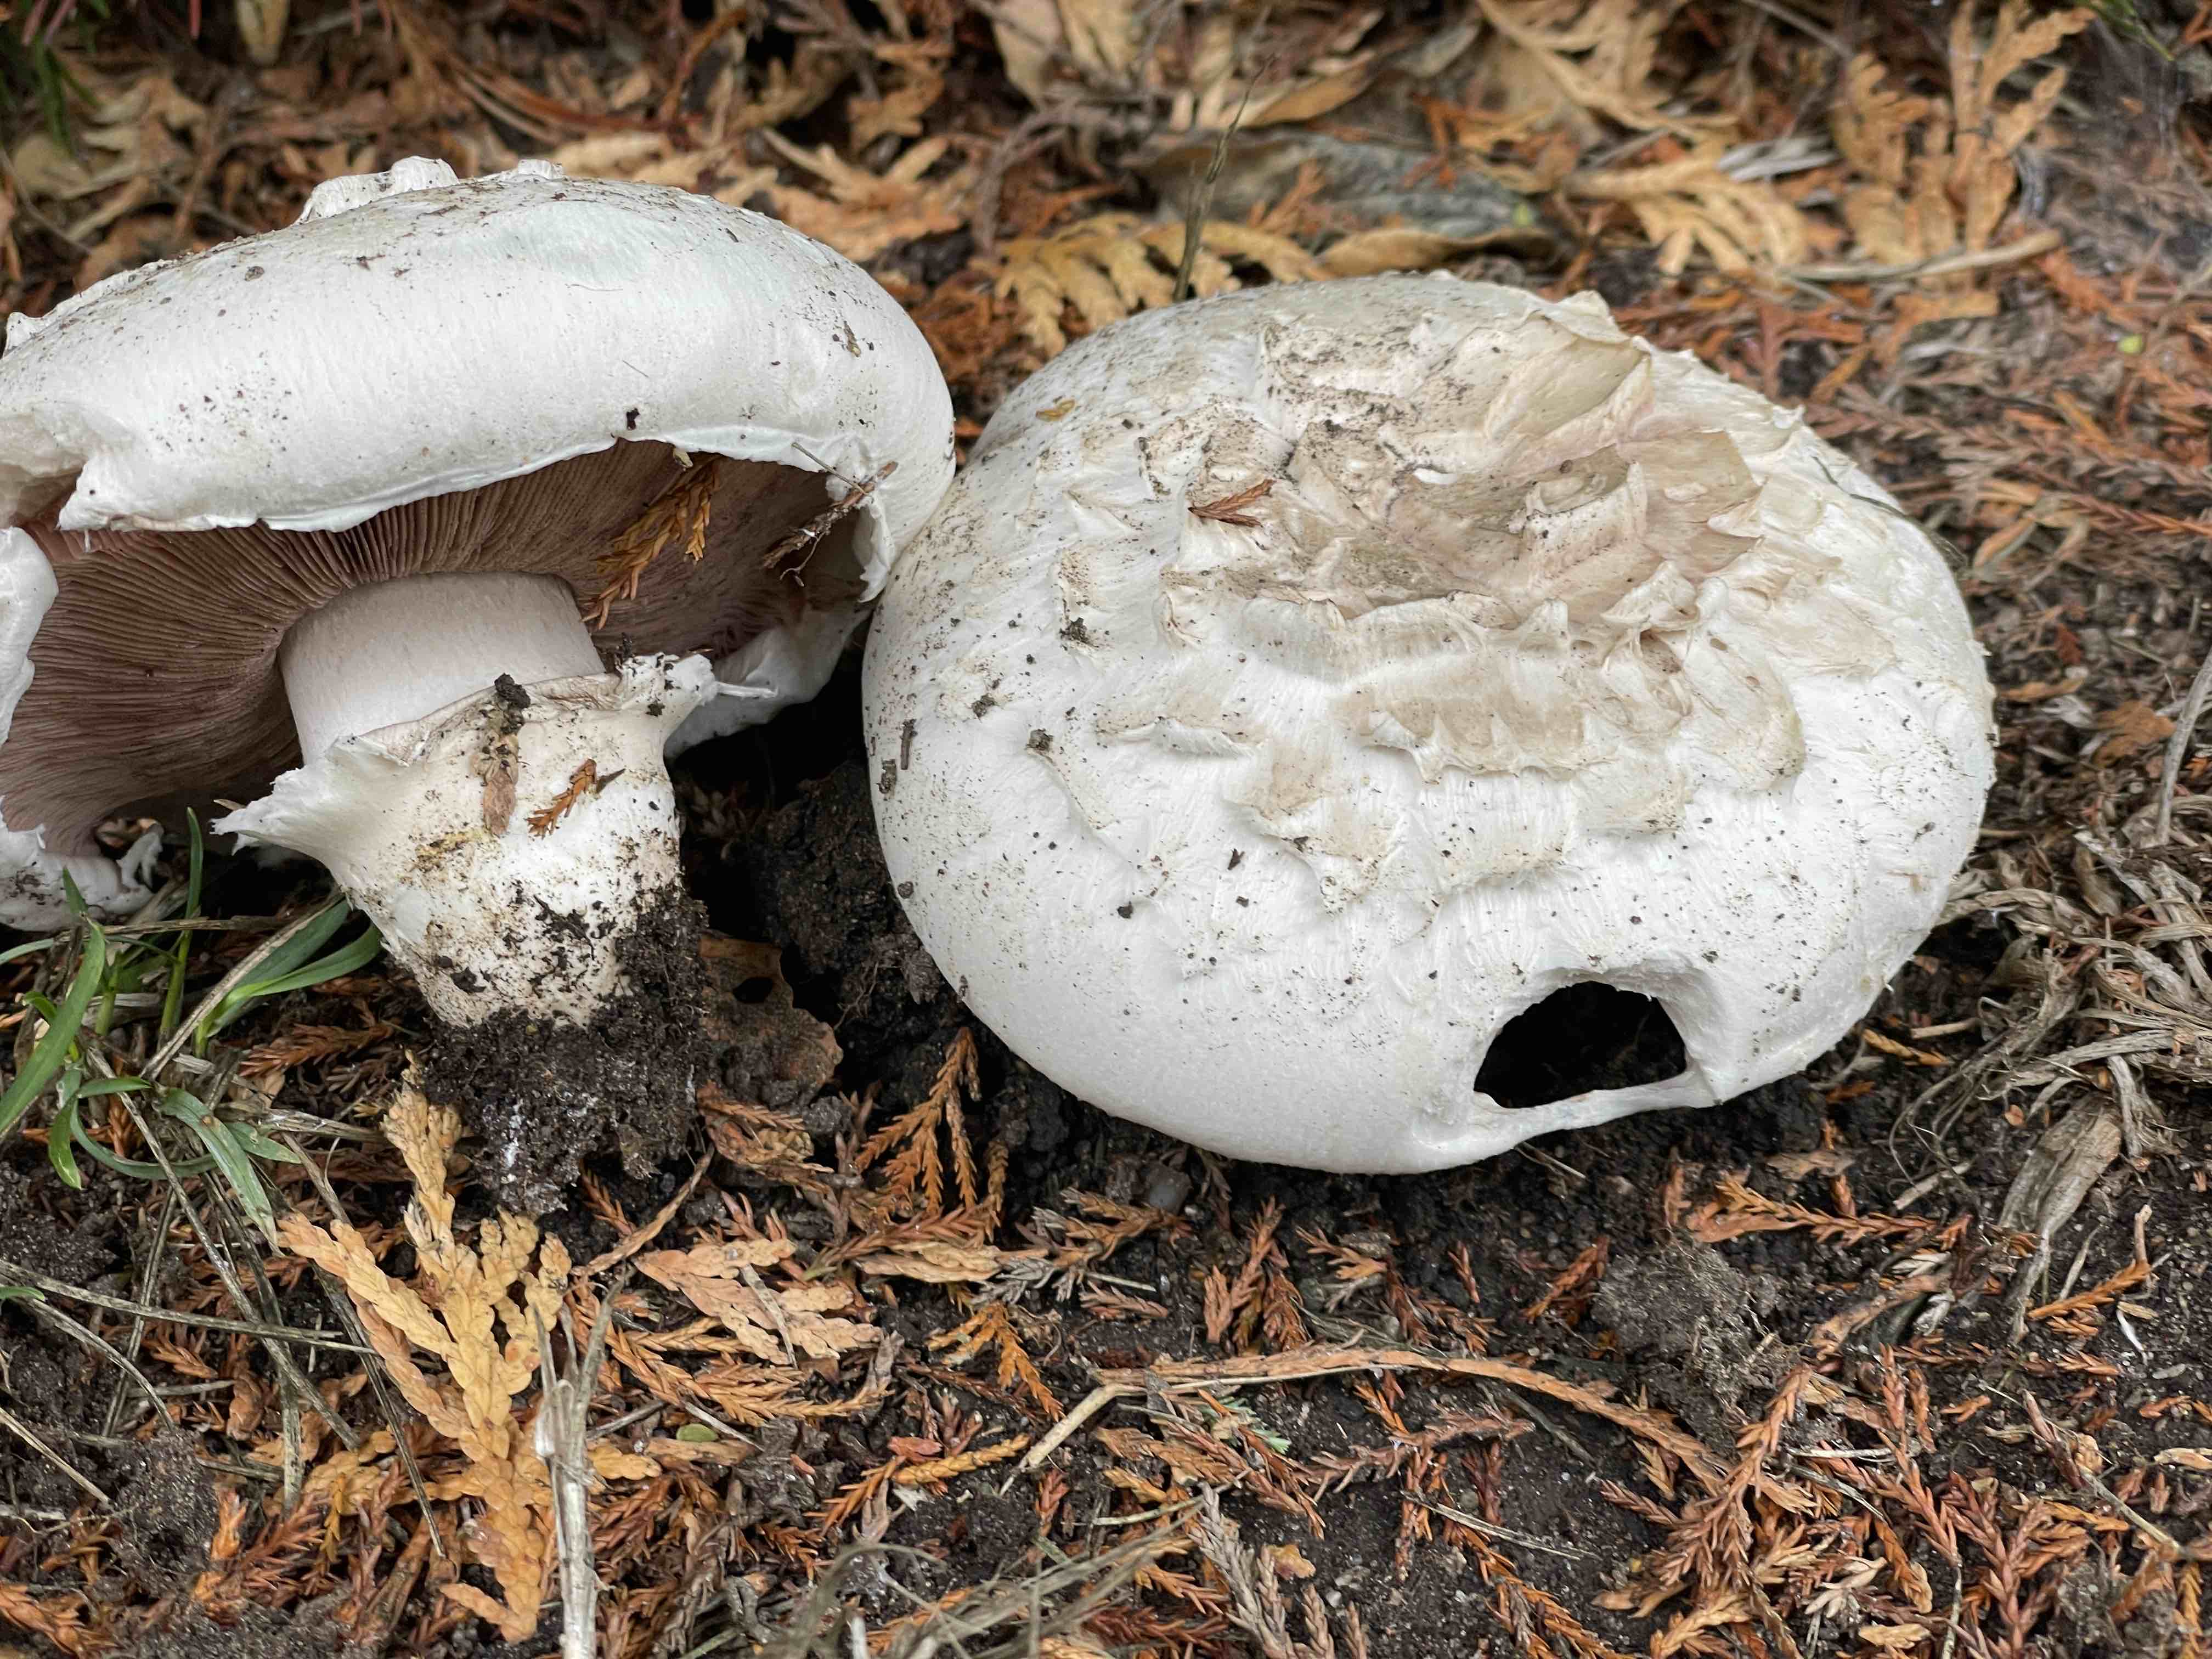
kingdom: Fungi
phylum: Basidiomycota
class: Agaricomycetes
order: Agaricales
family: Agaricaceae
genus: Agaricus
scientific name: Agaricus bernardii
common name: strandengs-champignon
